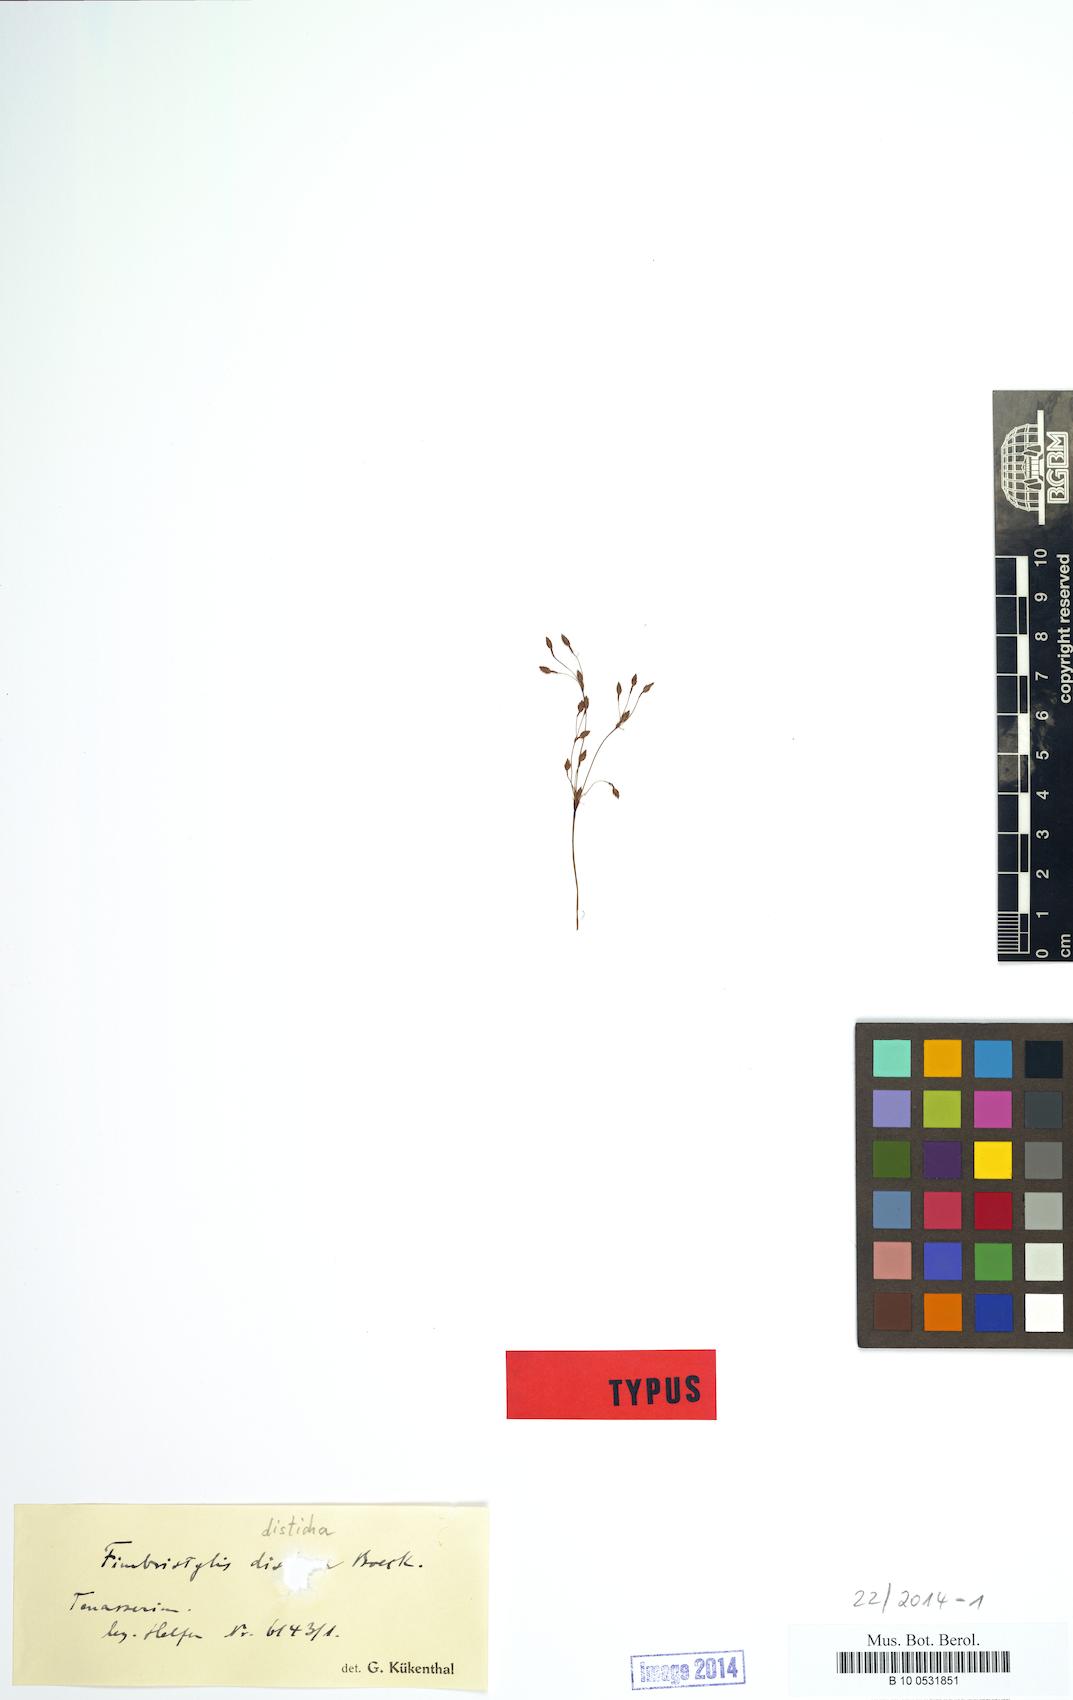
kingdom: Plantae
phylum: Tracheophyta
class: Liliopsida
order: Poales
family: Cyperaceae
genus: Fimbristylis
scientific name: Fimbristylis disticha
